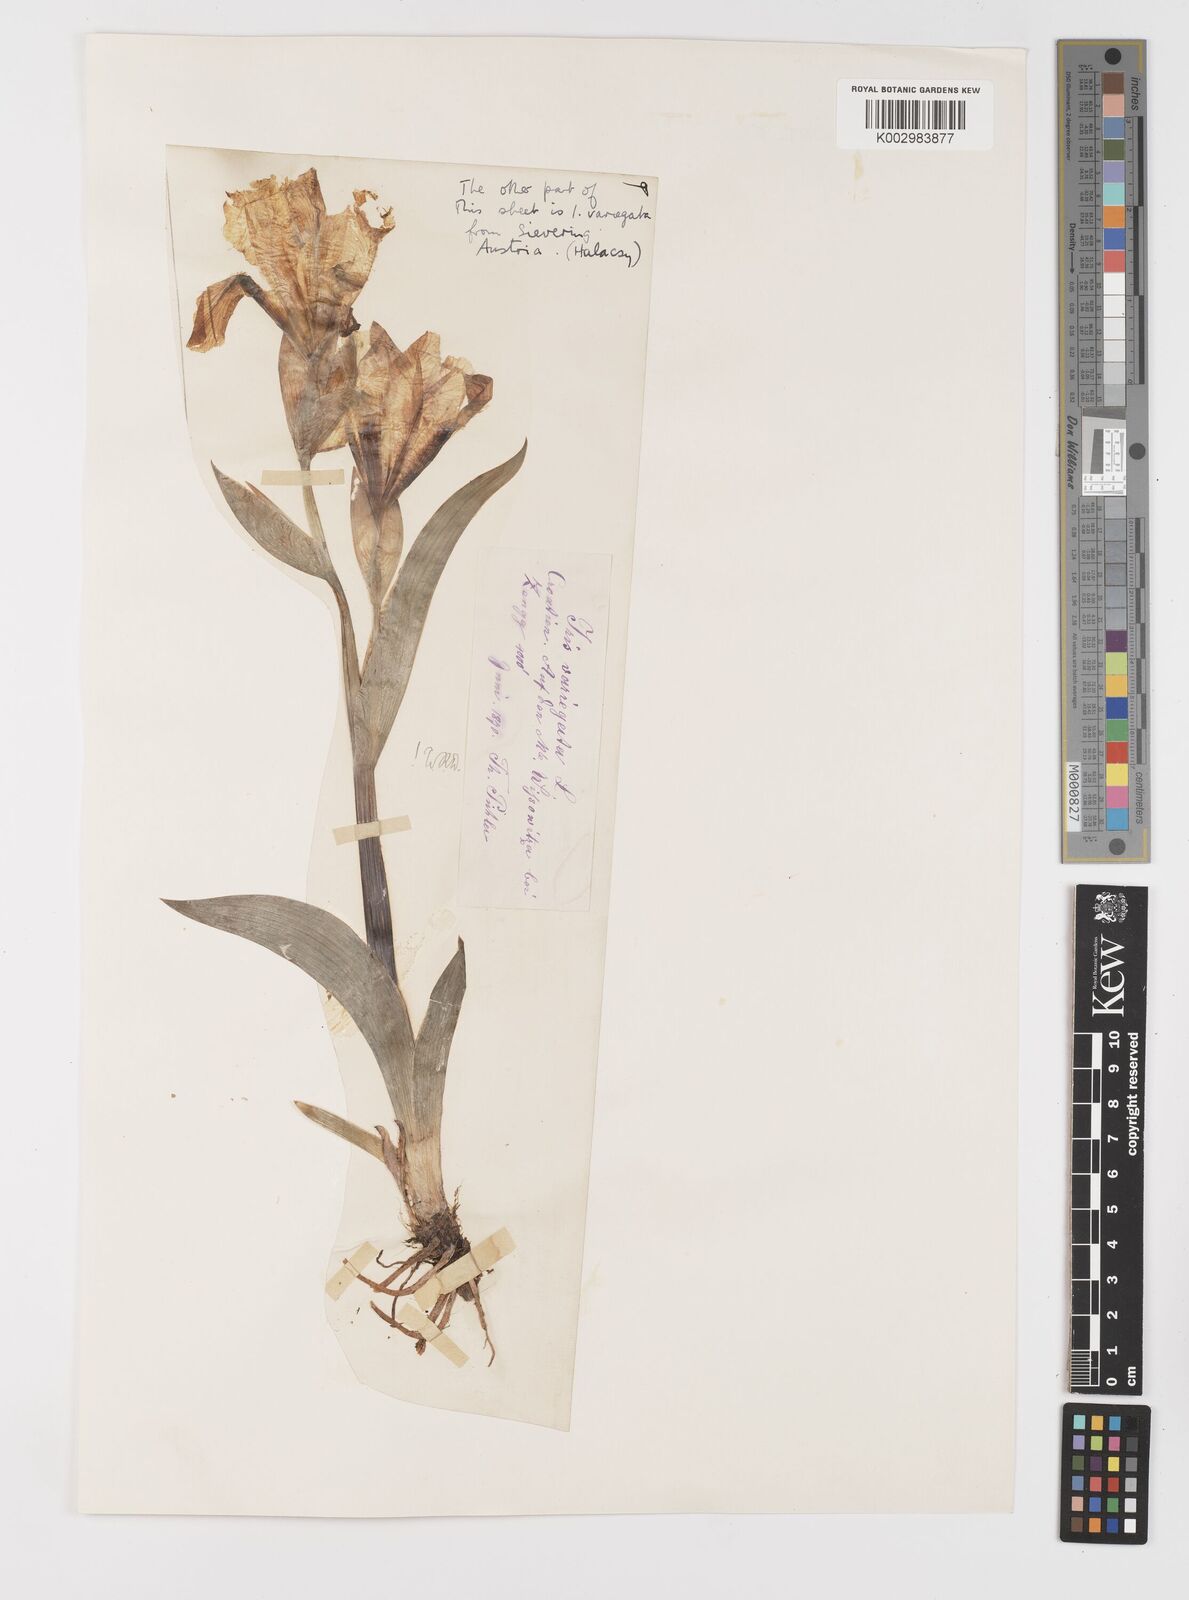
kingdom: Plantae
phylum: Tracheophyta
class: Liliopsida
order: Asparagales
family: Iridaceae
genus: Iris
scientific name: Iris variegata
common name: Hungarian iris
